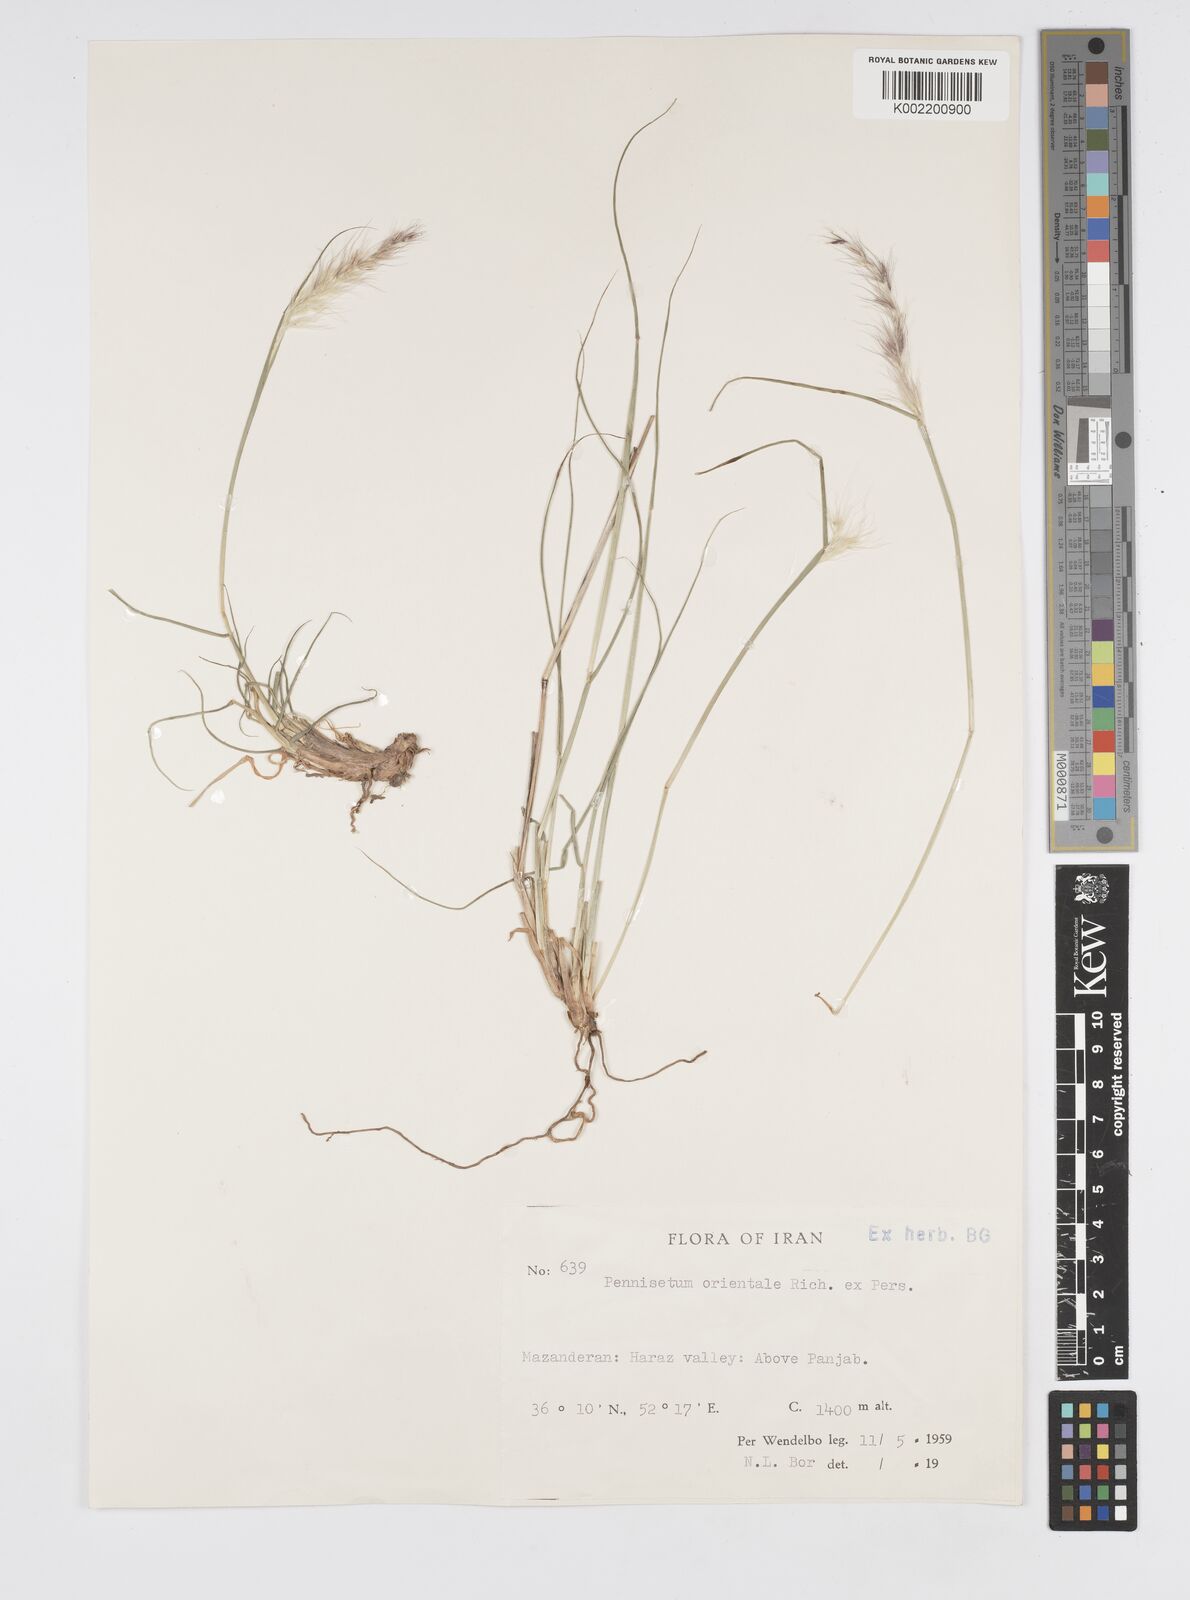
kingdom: Plantae
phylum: Tracheophyta
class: Liliopsida
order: Poales
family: Poaceae
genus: Cenchrus
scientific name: Cenchrus orientalis
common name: Oriental fountain grass
